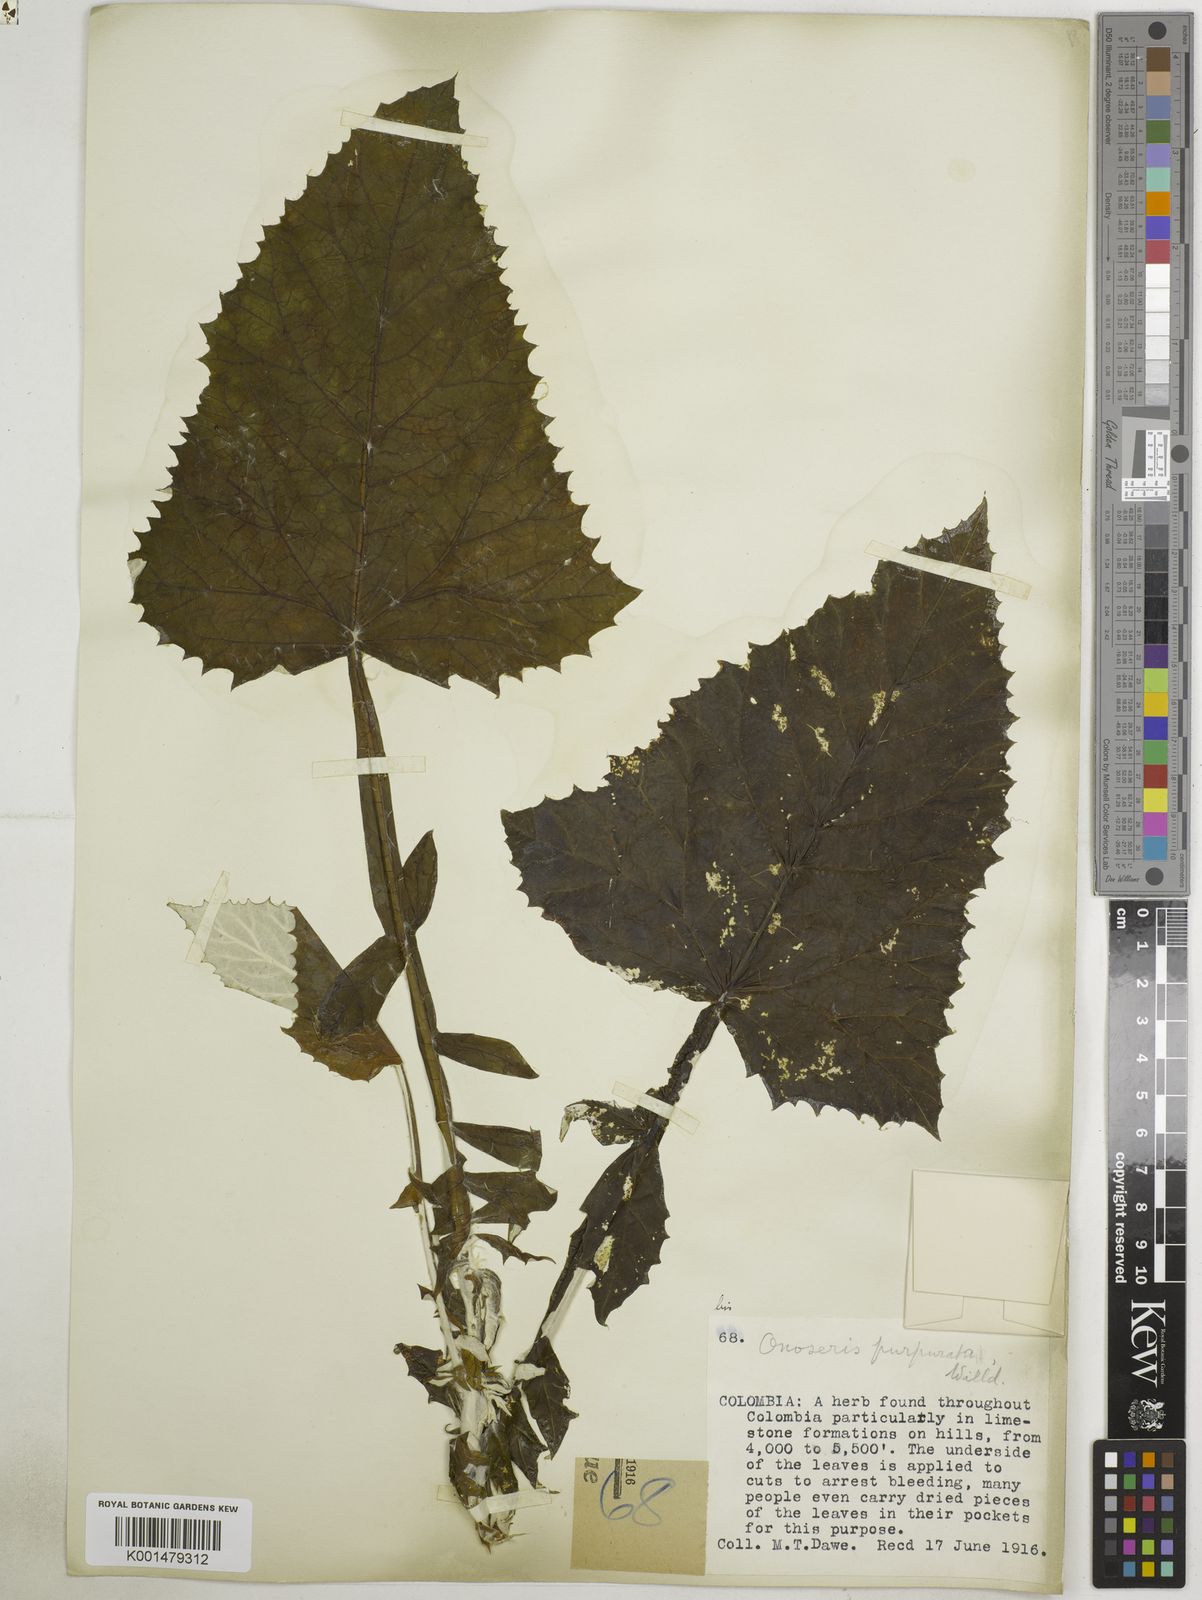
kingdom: Plantae
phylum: Tracheophyta
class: Magnoliopsida
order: Asterales
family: Asteraceae
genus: Onoseris
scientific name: Onoseris purpurata
